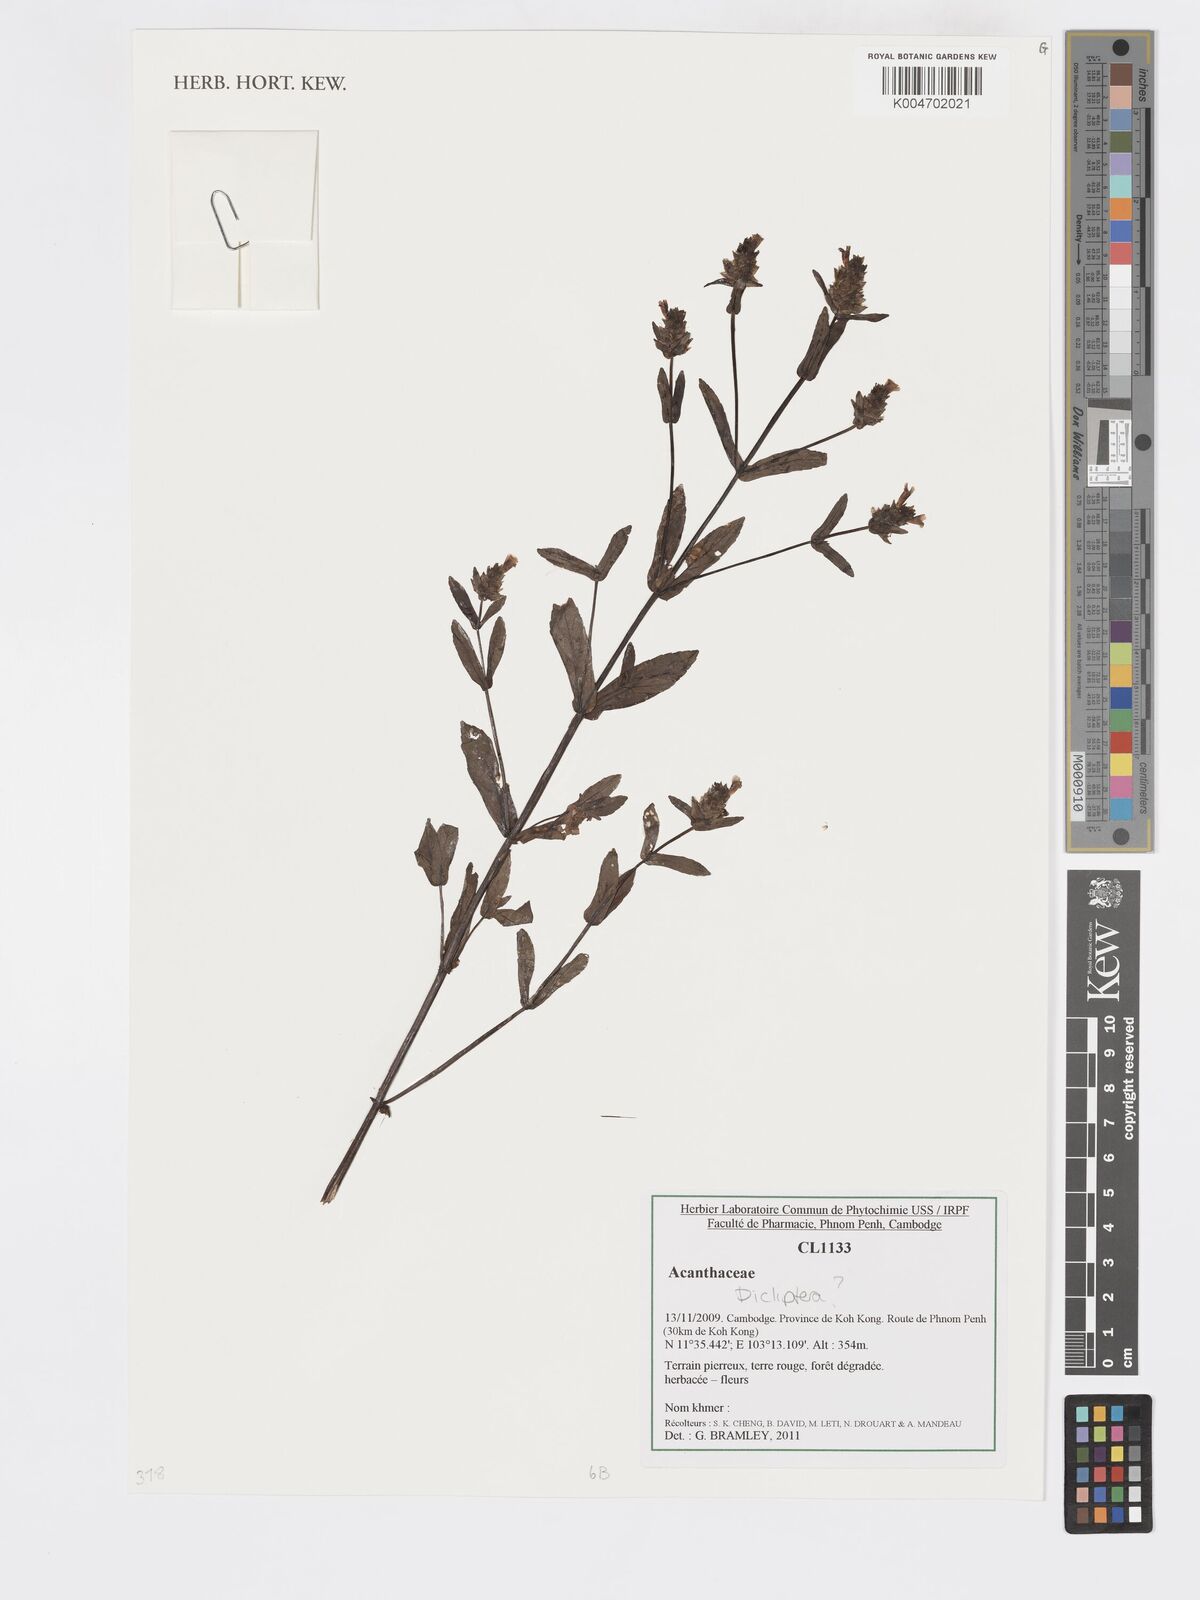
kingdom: Plantae
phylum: Tracheophyta
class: Magnoliopsida
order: Lamiales
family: Acanthaceae
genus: Dicliptera
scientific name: Dicliptera
